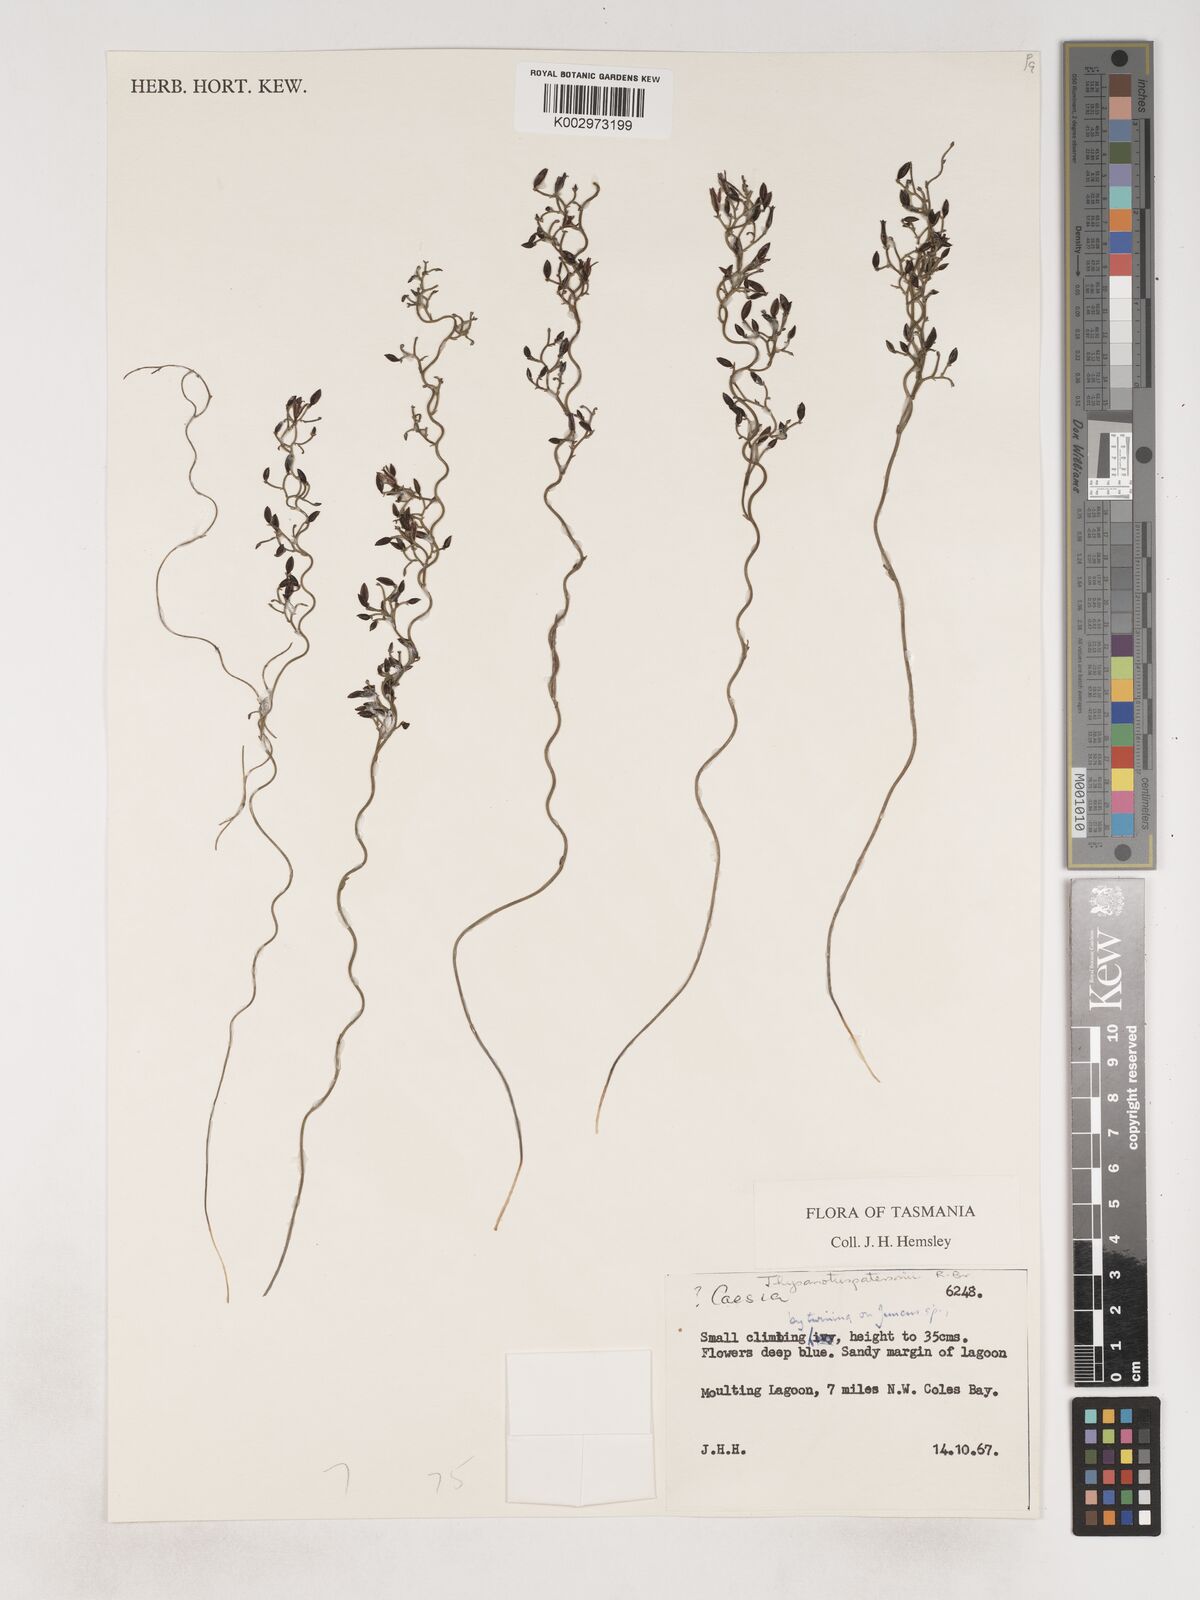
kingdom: Plantae
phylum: Tracheophyta
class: Liliopsida
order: Asparagales
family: Asparagaceae
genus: Thysanotus
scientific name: Thysanotus patersonii
